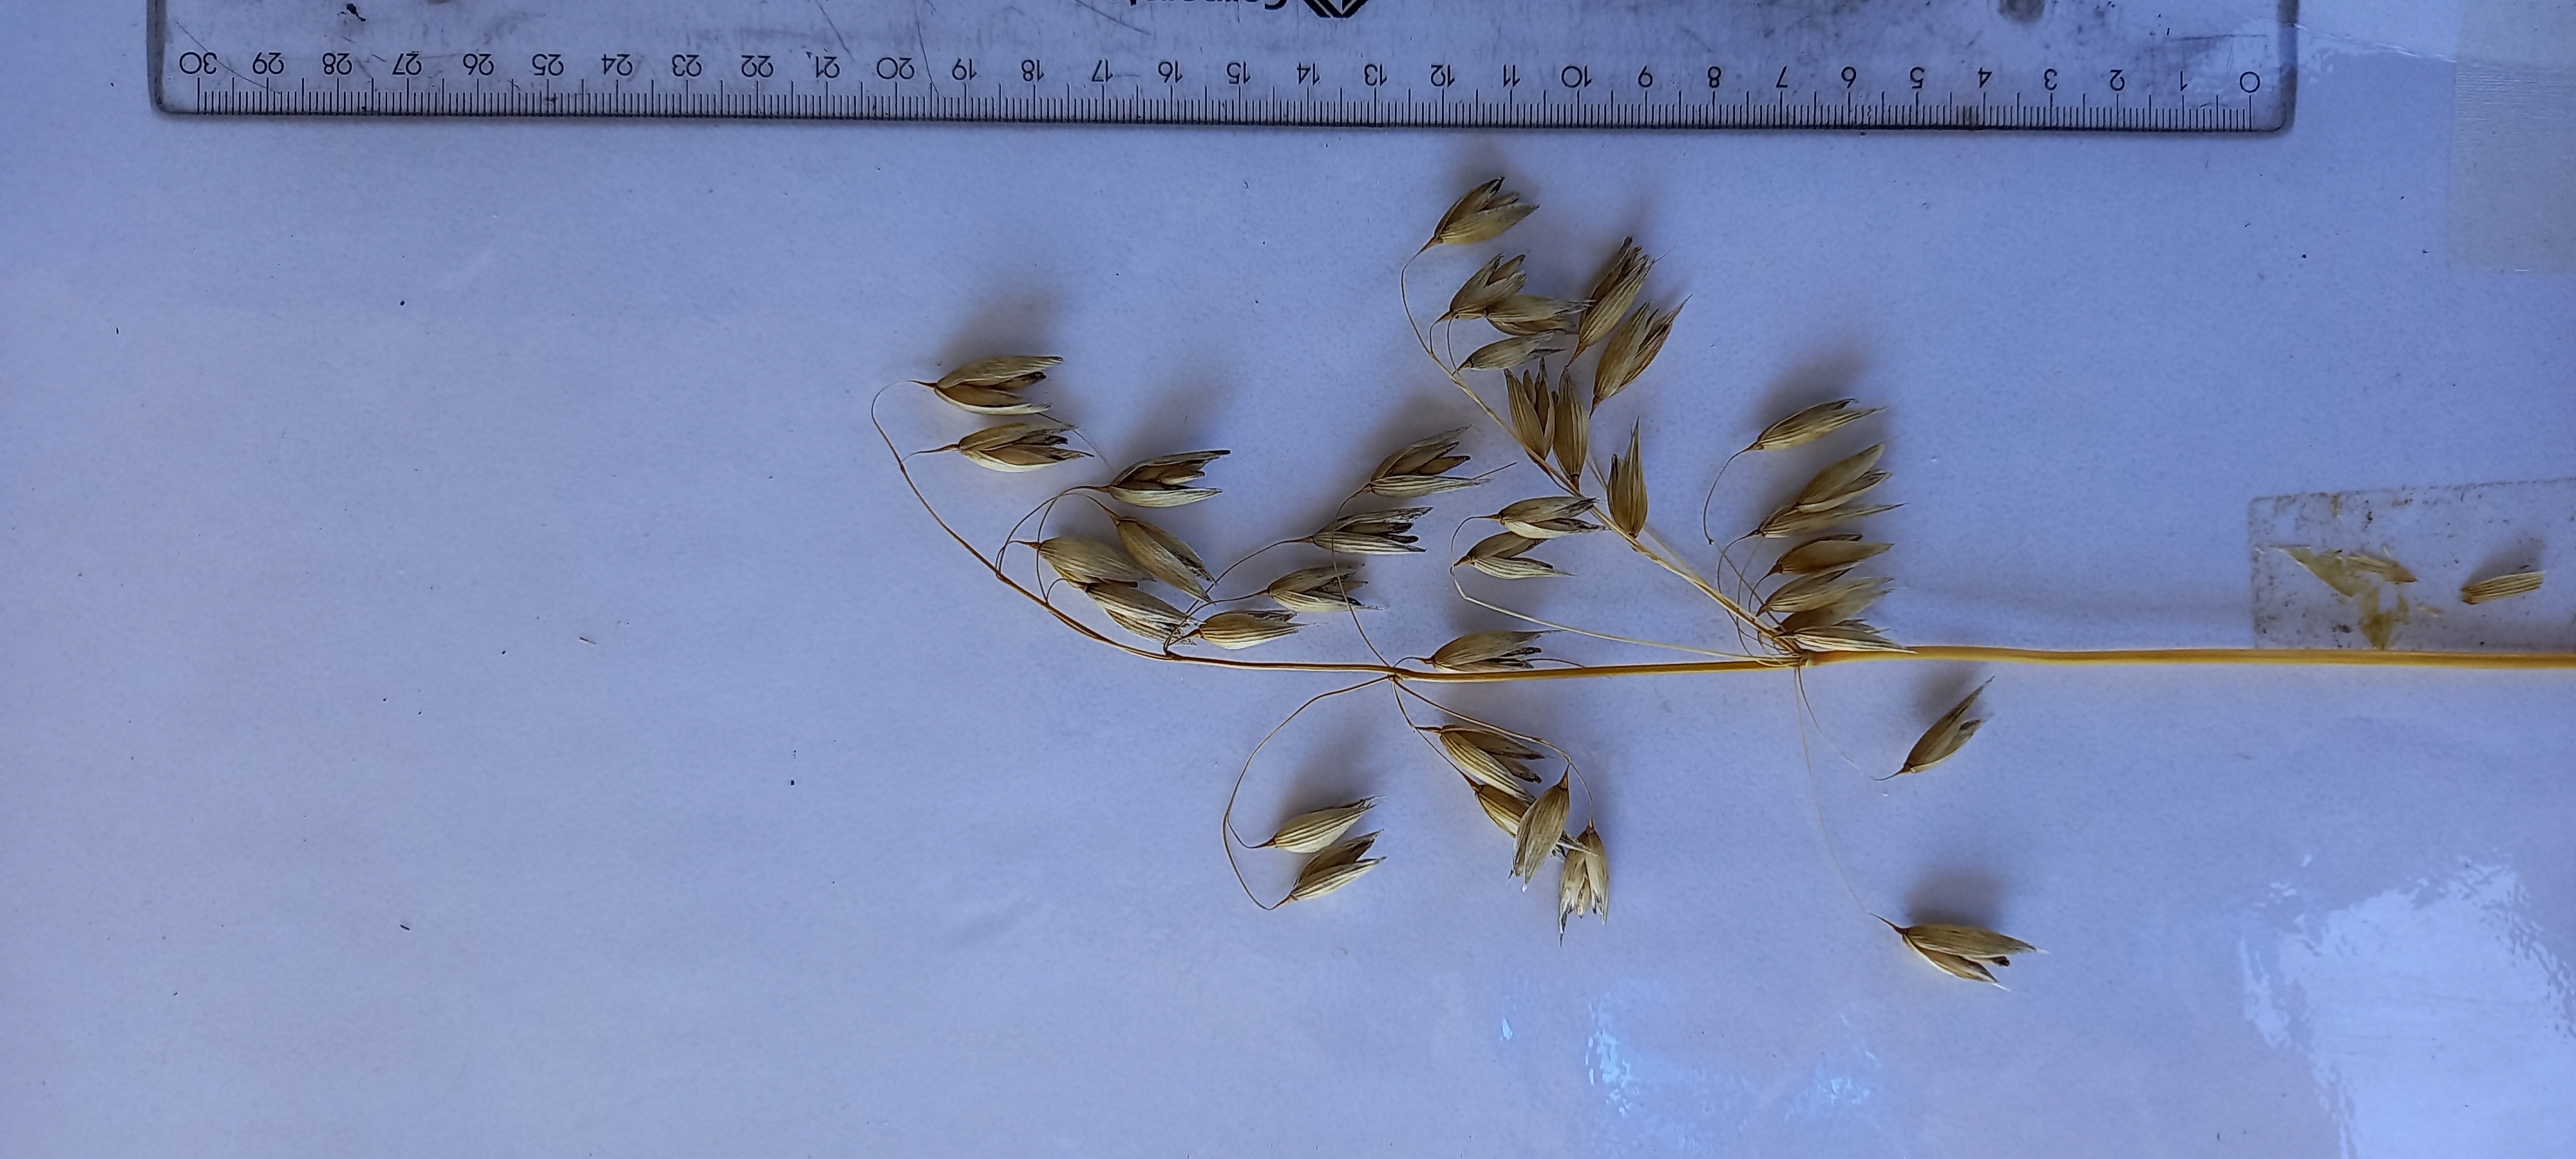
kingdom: Plantae
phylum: Tracheophyta
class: Liliopsida
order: Poales
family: Poaceae
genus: Avena
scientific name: Avena sativa
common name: Oat
